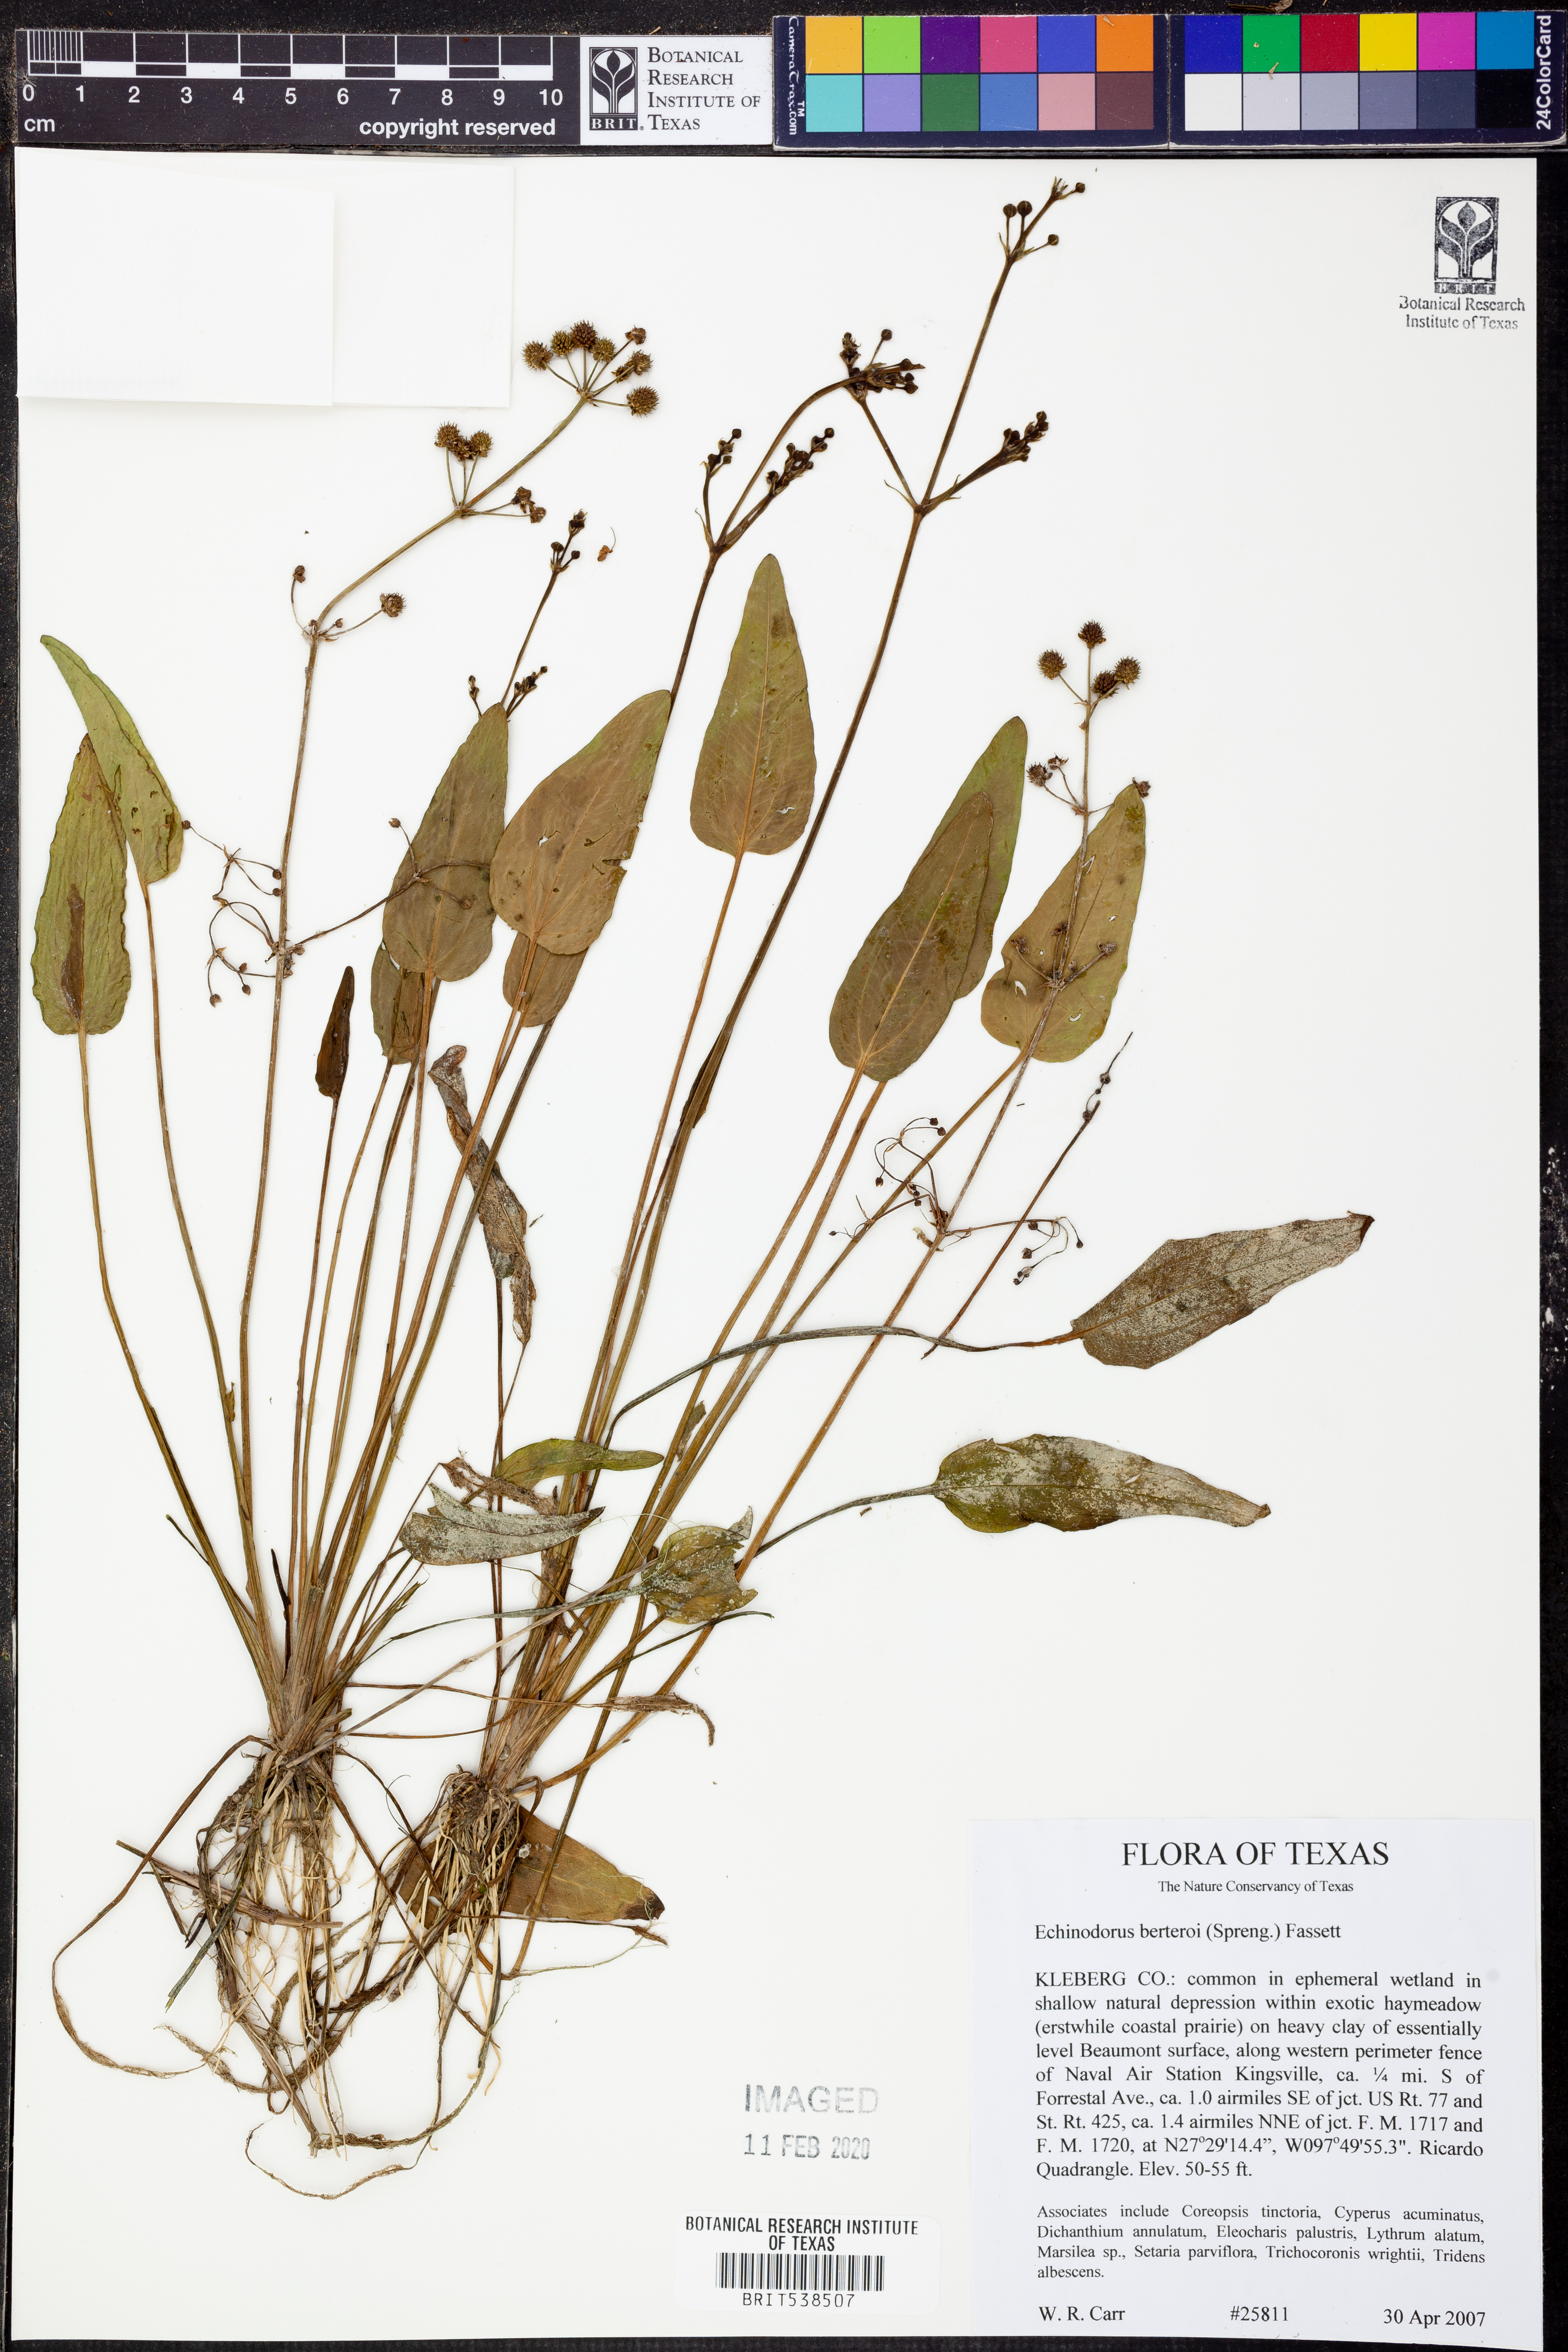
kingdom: Plantae
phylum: Tracheophyta
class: Liliopsida
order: Alismatales
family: Alismataceae
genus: Echinodorus
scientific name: Echinodorus berteroi
